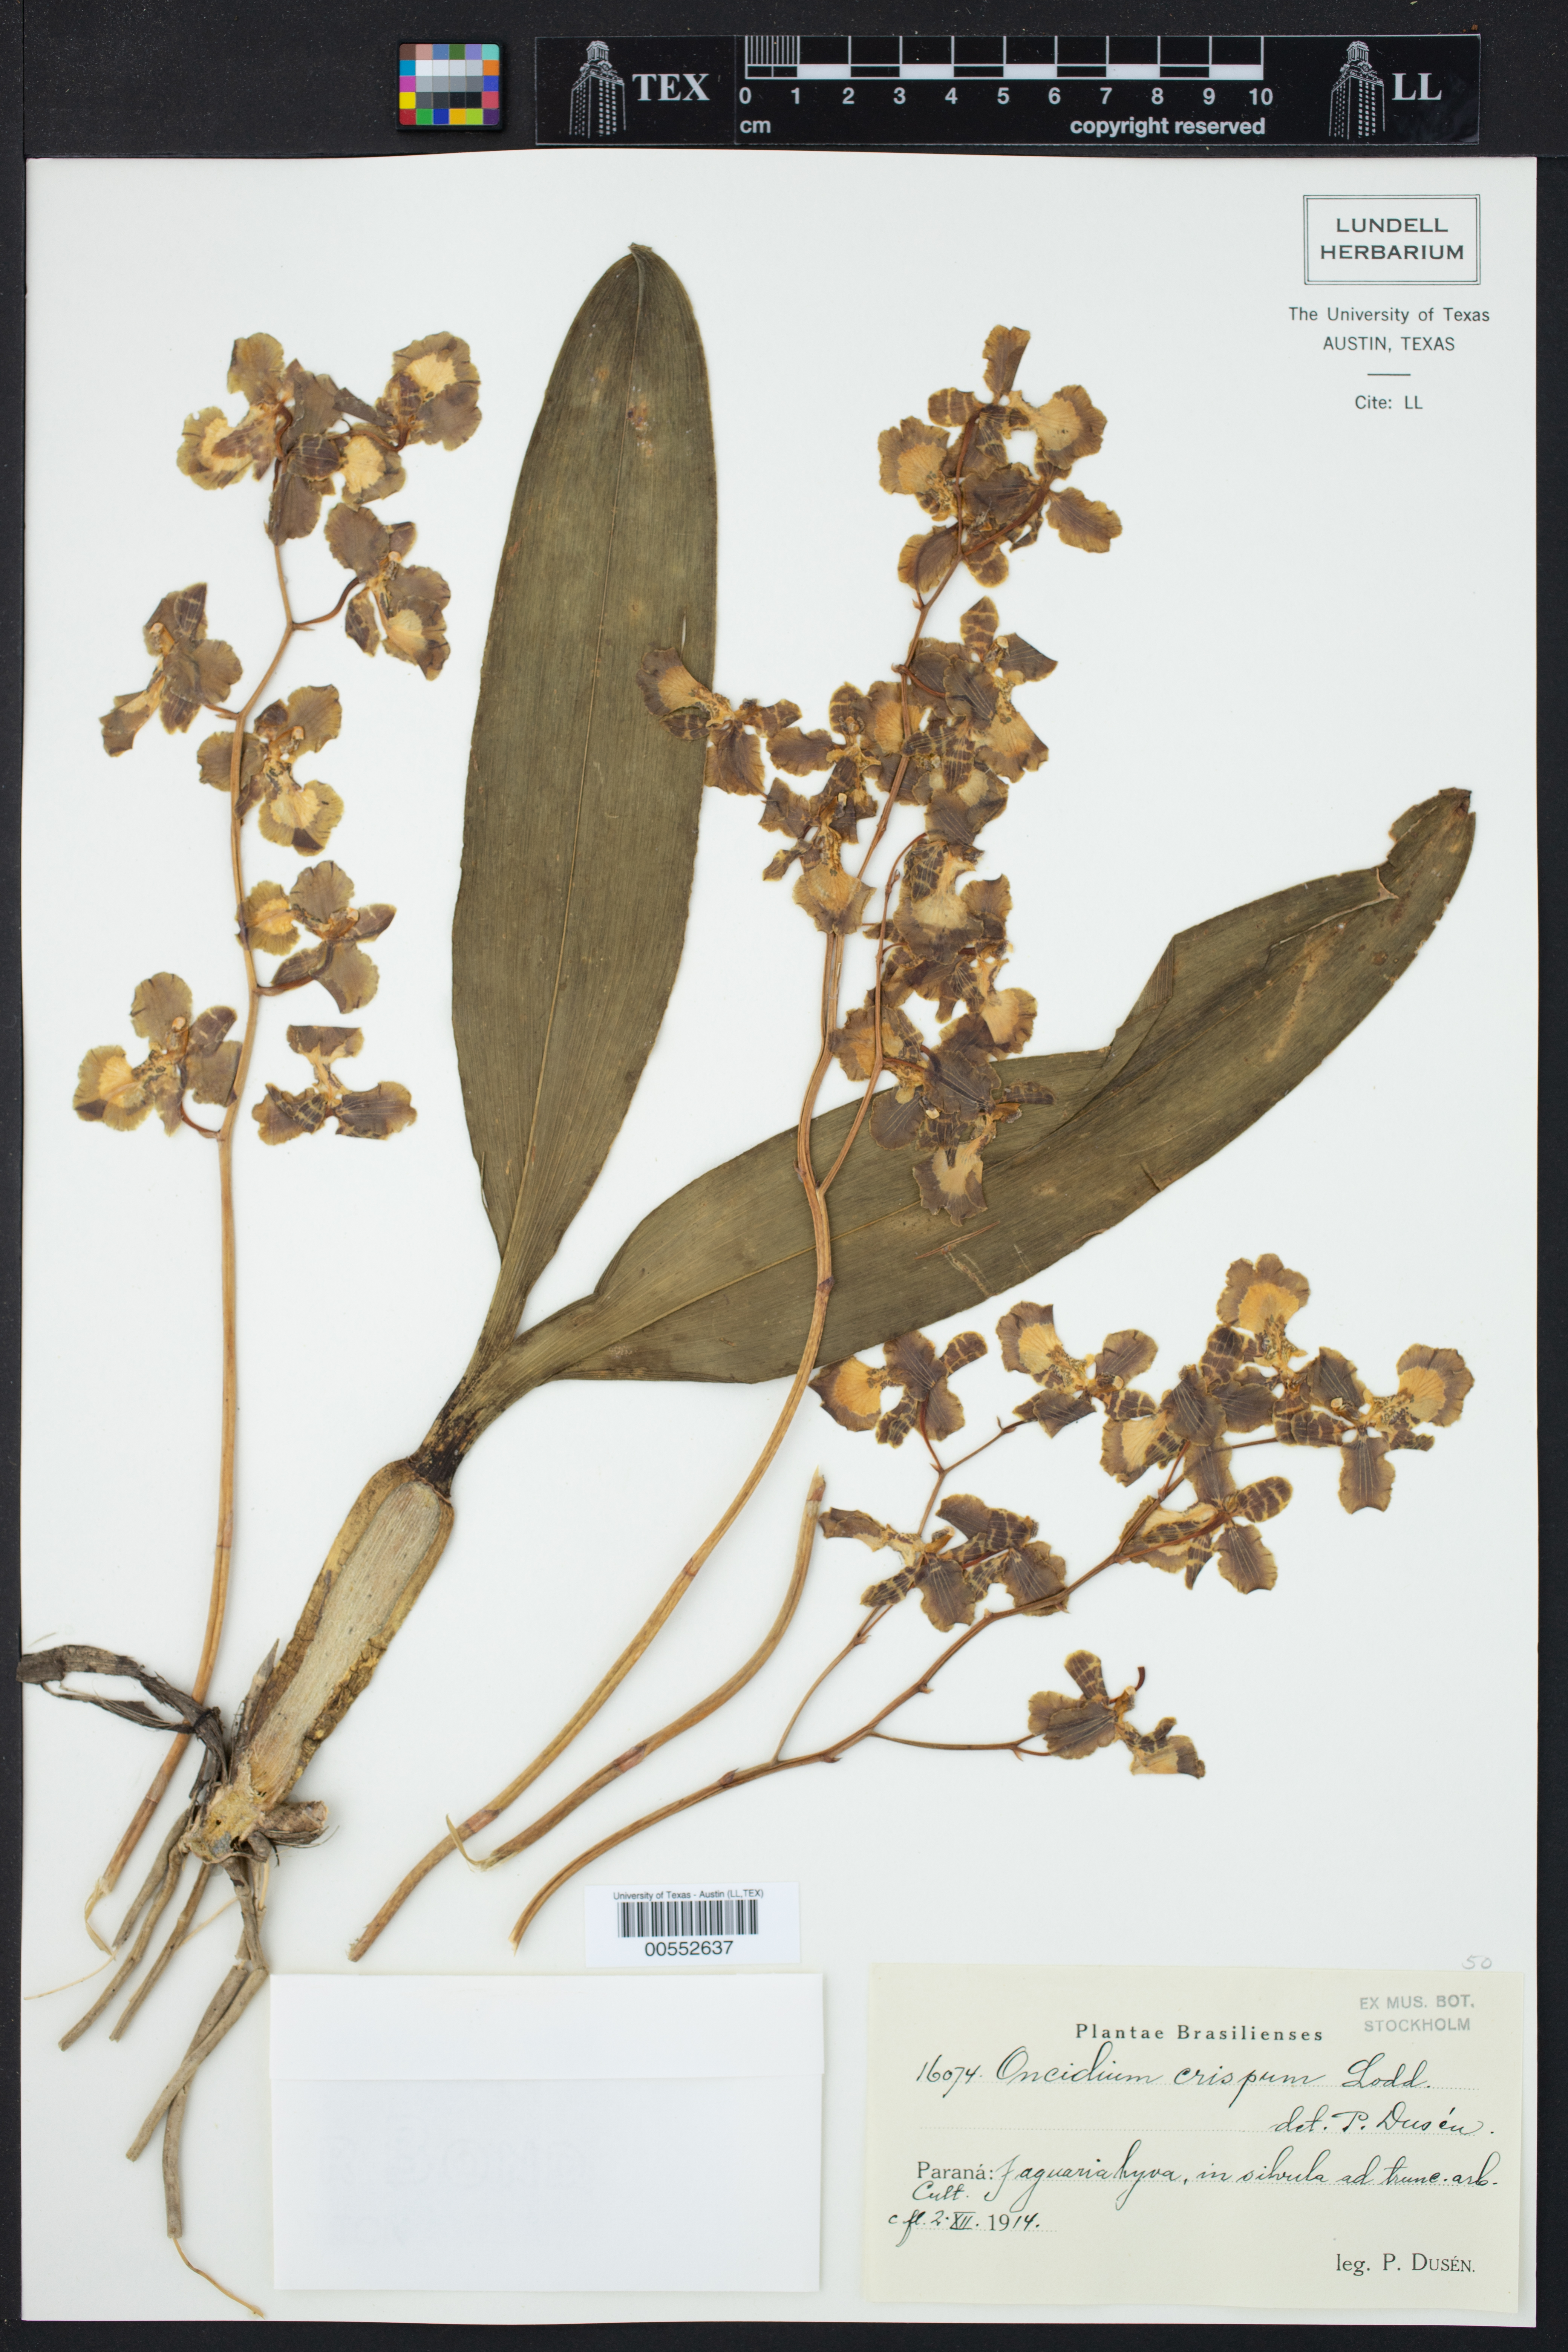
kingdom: Plantae
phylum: Tracheophyta
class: Liliopsida
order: Asparagales
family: Orchidaceae
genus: Gomesa
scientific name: Gomesa imperatoris-maximiliani
